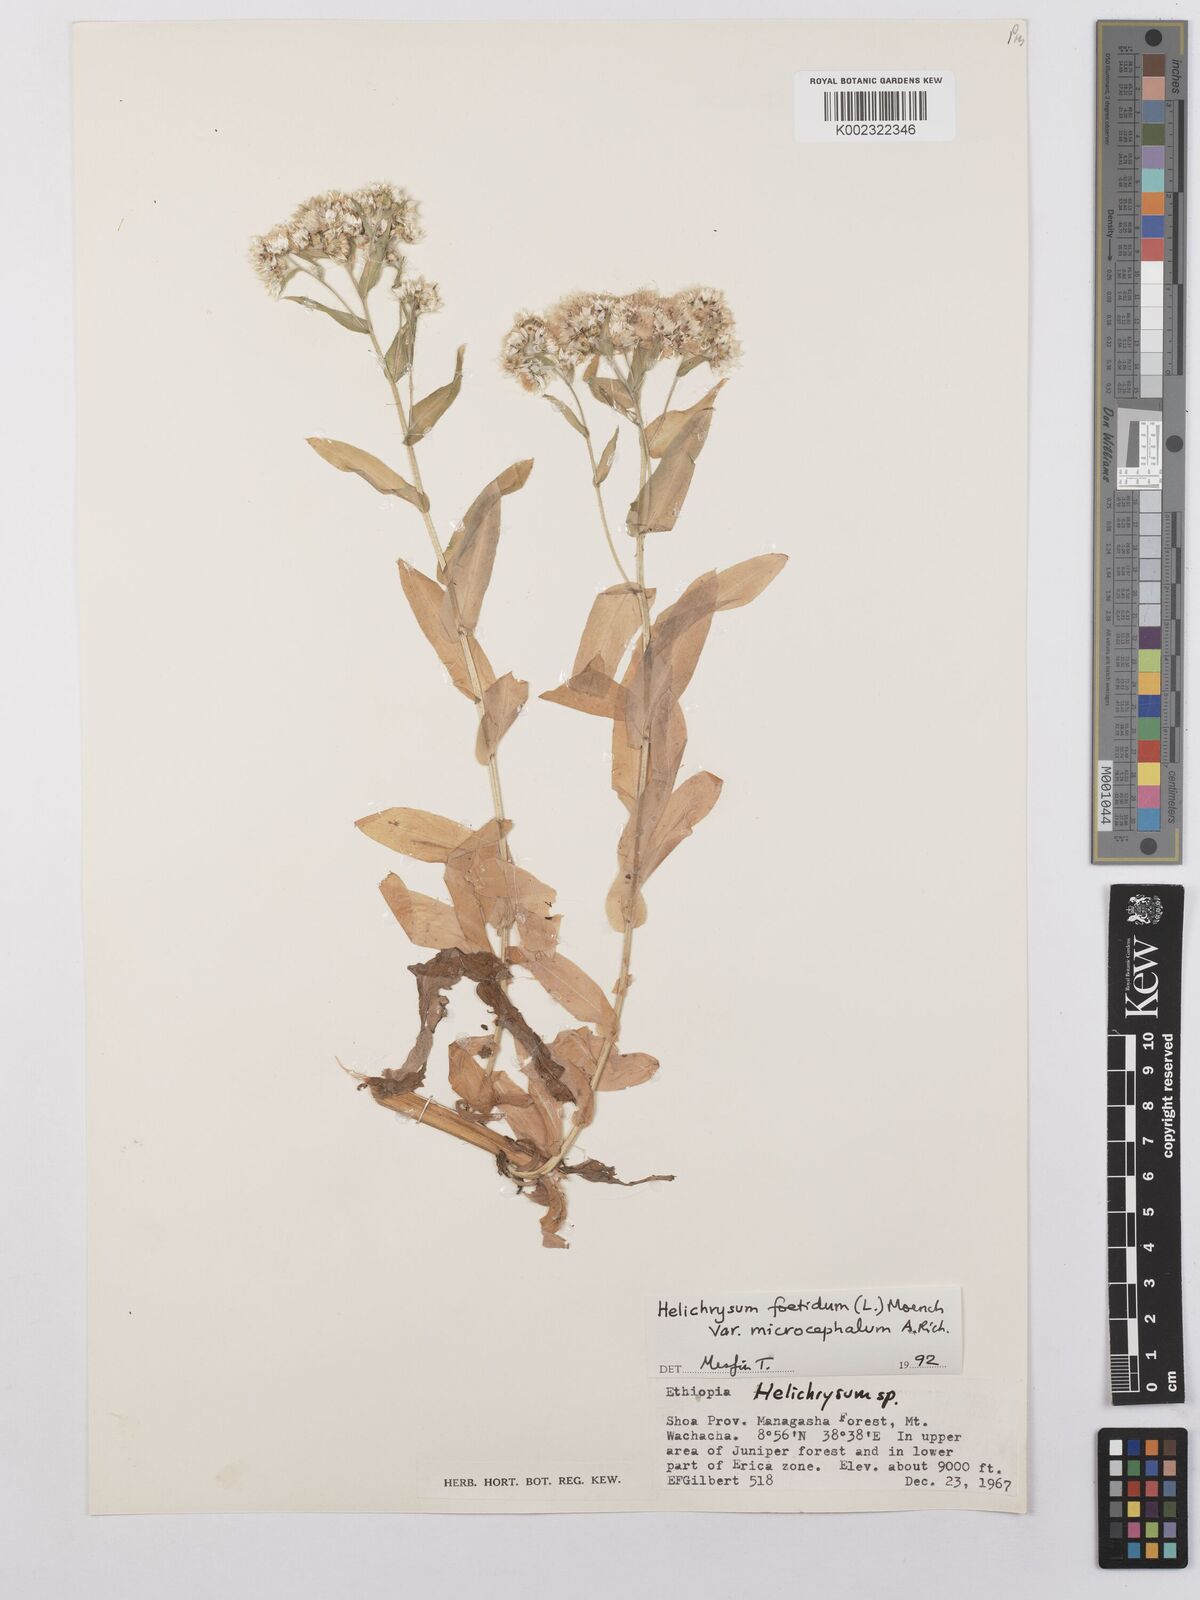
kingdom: Plantae
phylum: Tracheophyta
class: Magnoliopsida
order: Asterales
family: Asteraceae
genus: Helichrysum
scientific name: Helichrysum foetidum
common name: Stinking everlasting
